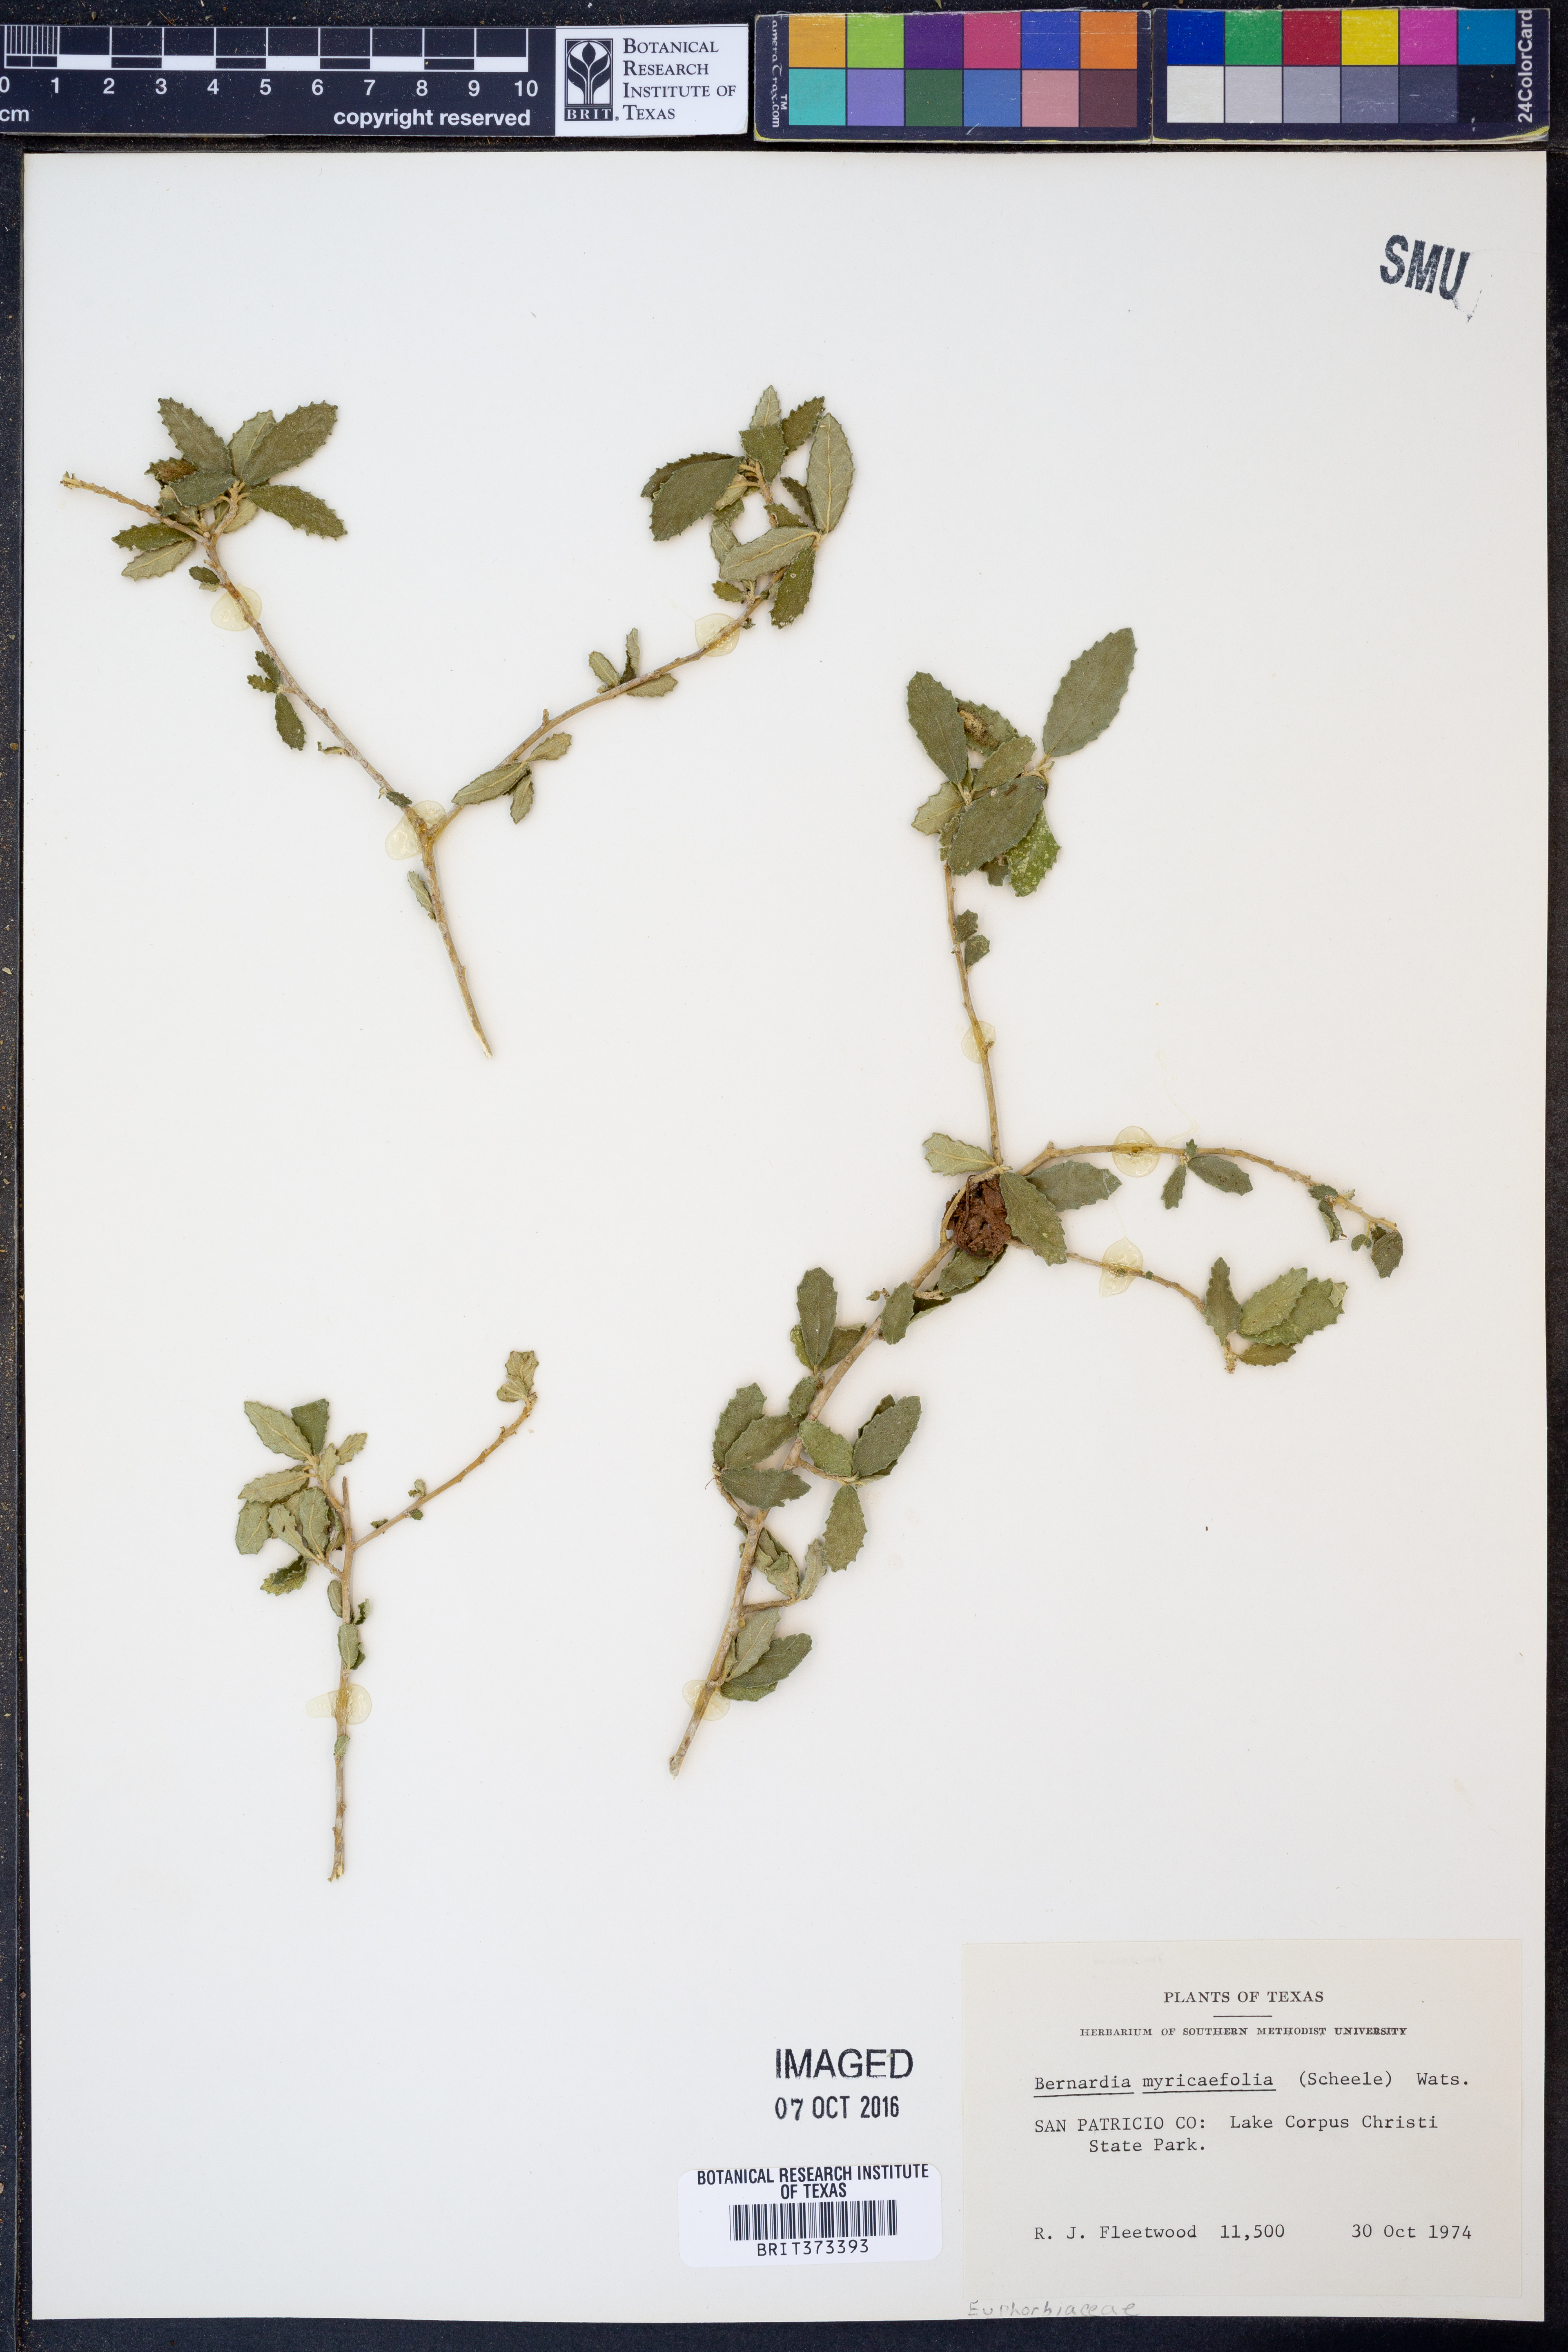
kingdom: Plantae
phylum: Tracheophyta
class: Magnoliopsida
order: Malpighiales
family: Euphorbiaceae
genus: Bernardia
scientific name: Bernardia myricifolia
